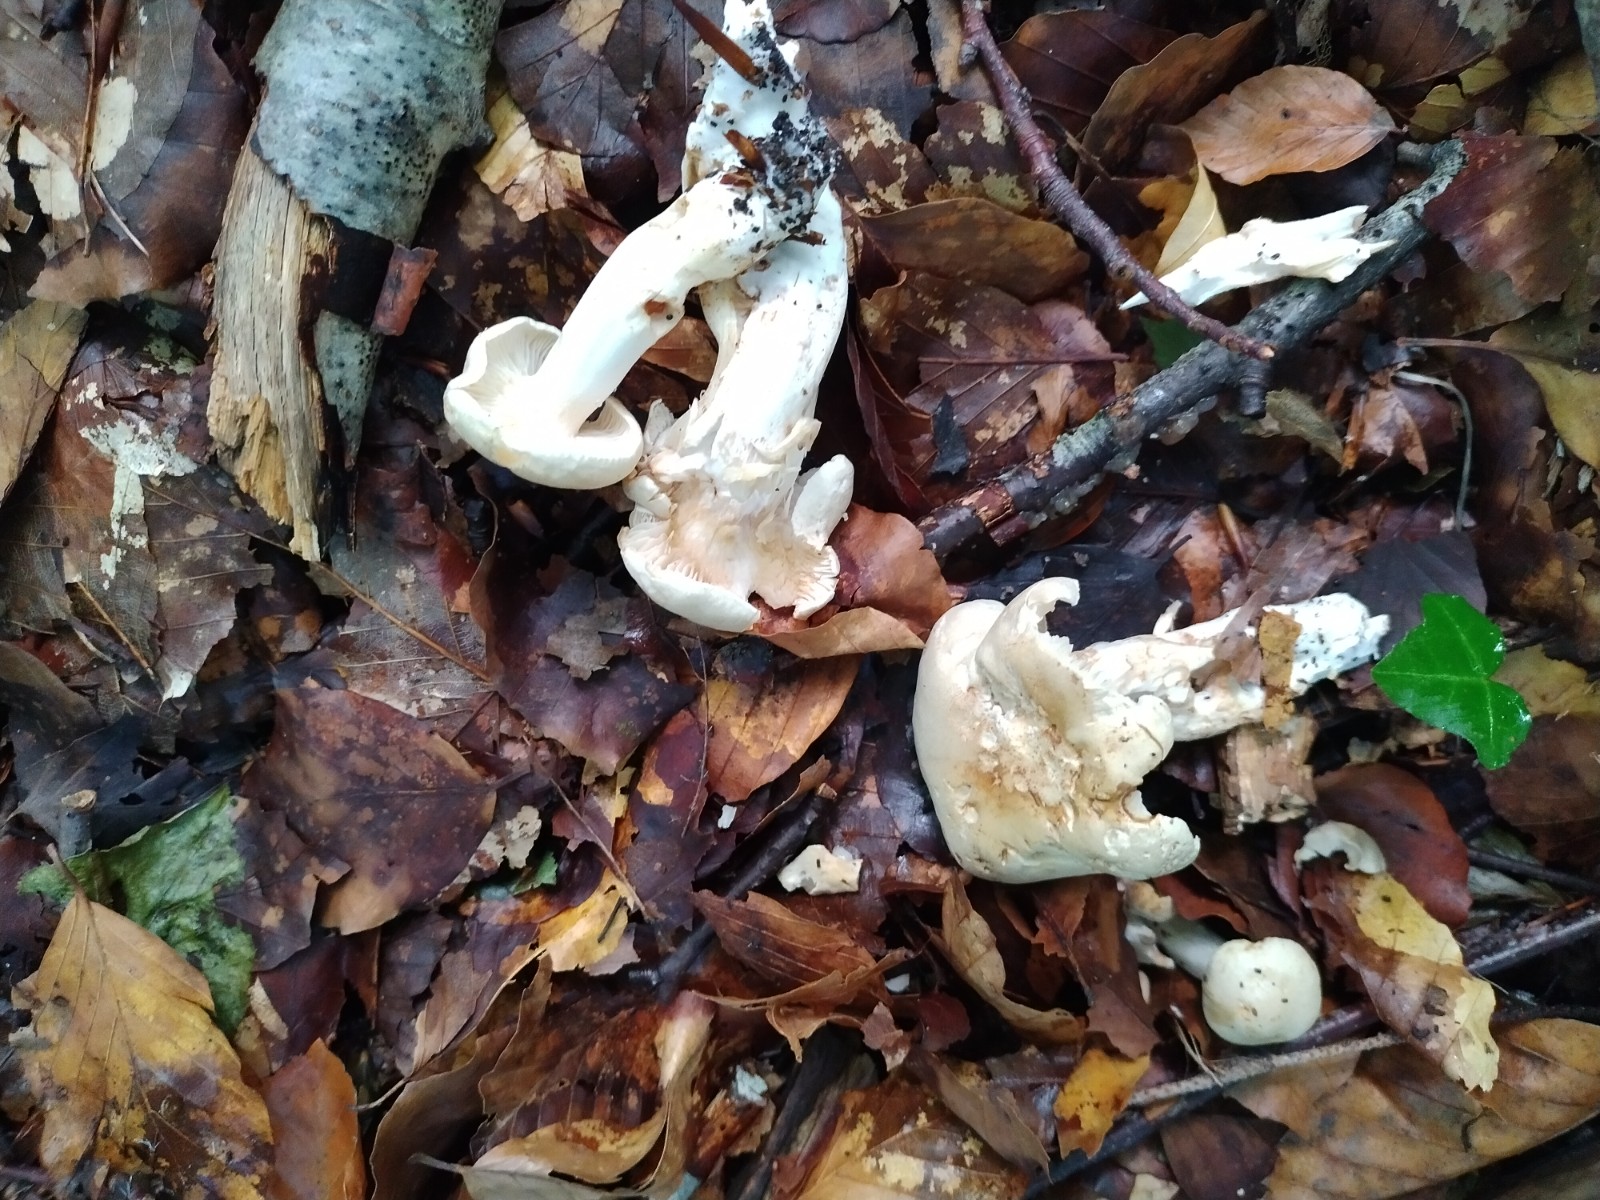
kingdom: Fungi
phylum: Basidiomycota
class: Agaricomycetes
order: Agaricales
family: Omphalotaceae
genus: Rhodocollybia
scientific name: Rhodocollybia maculata
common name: plettet fladhat
